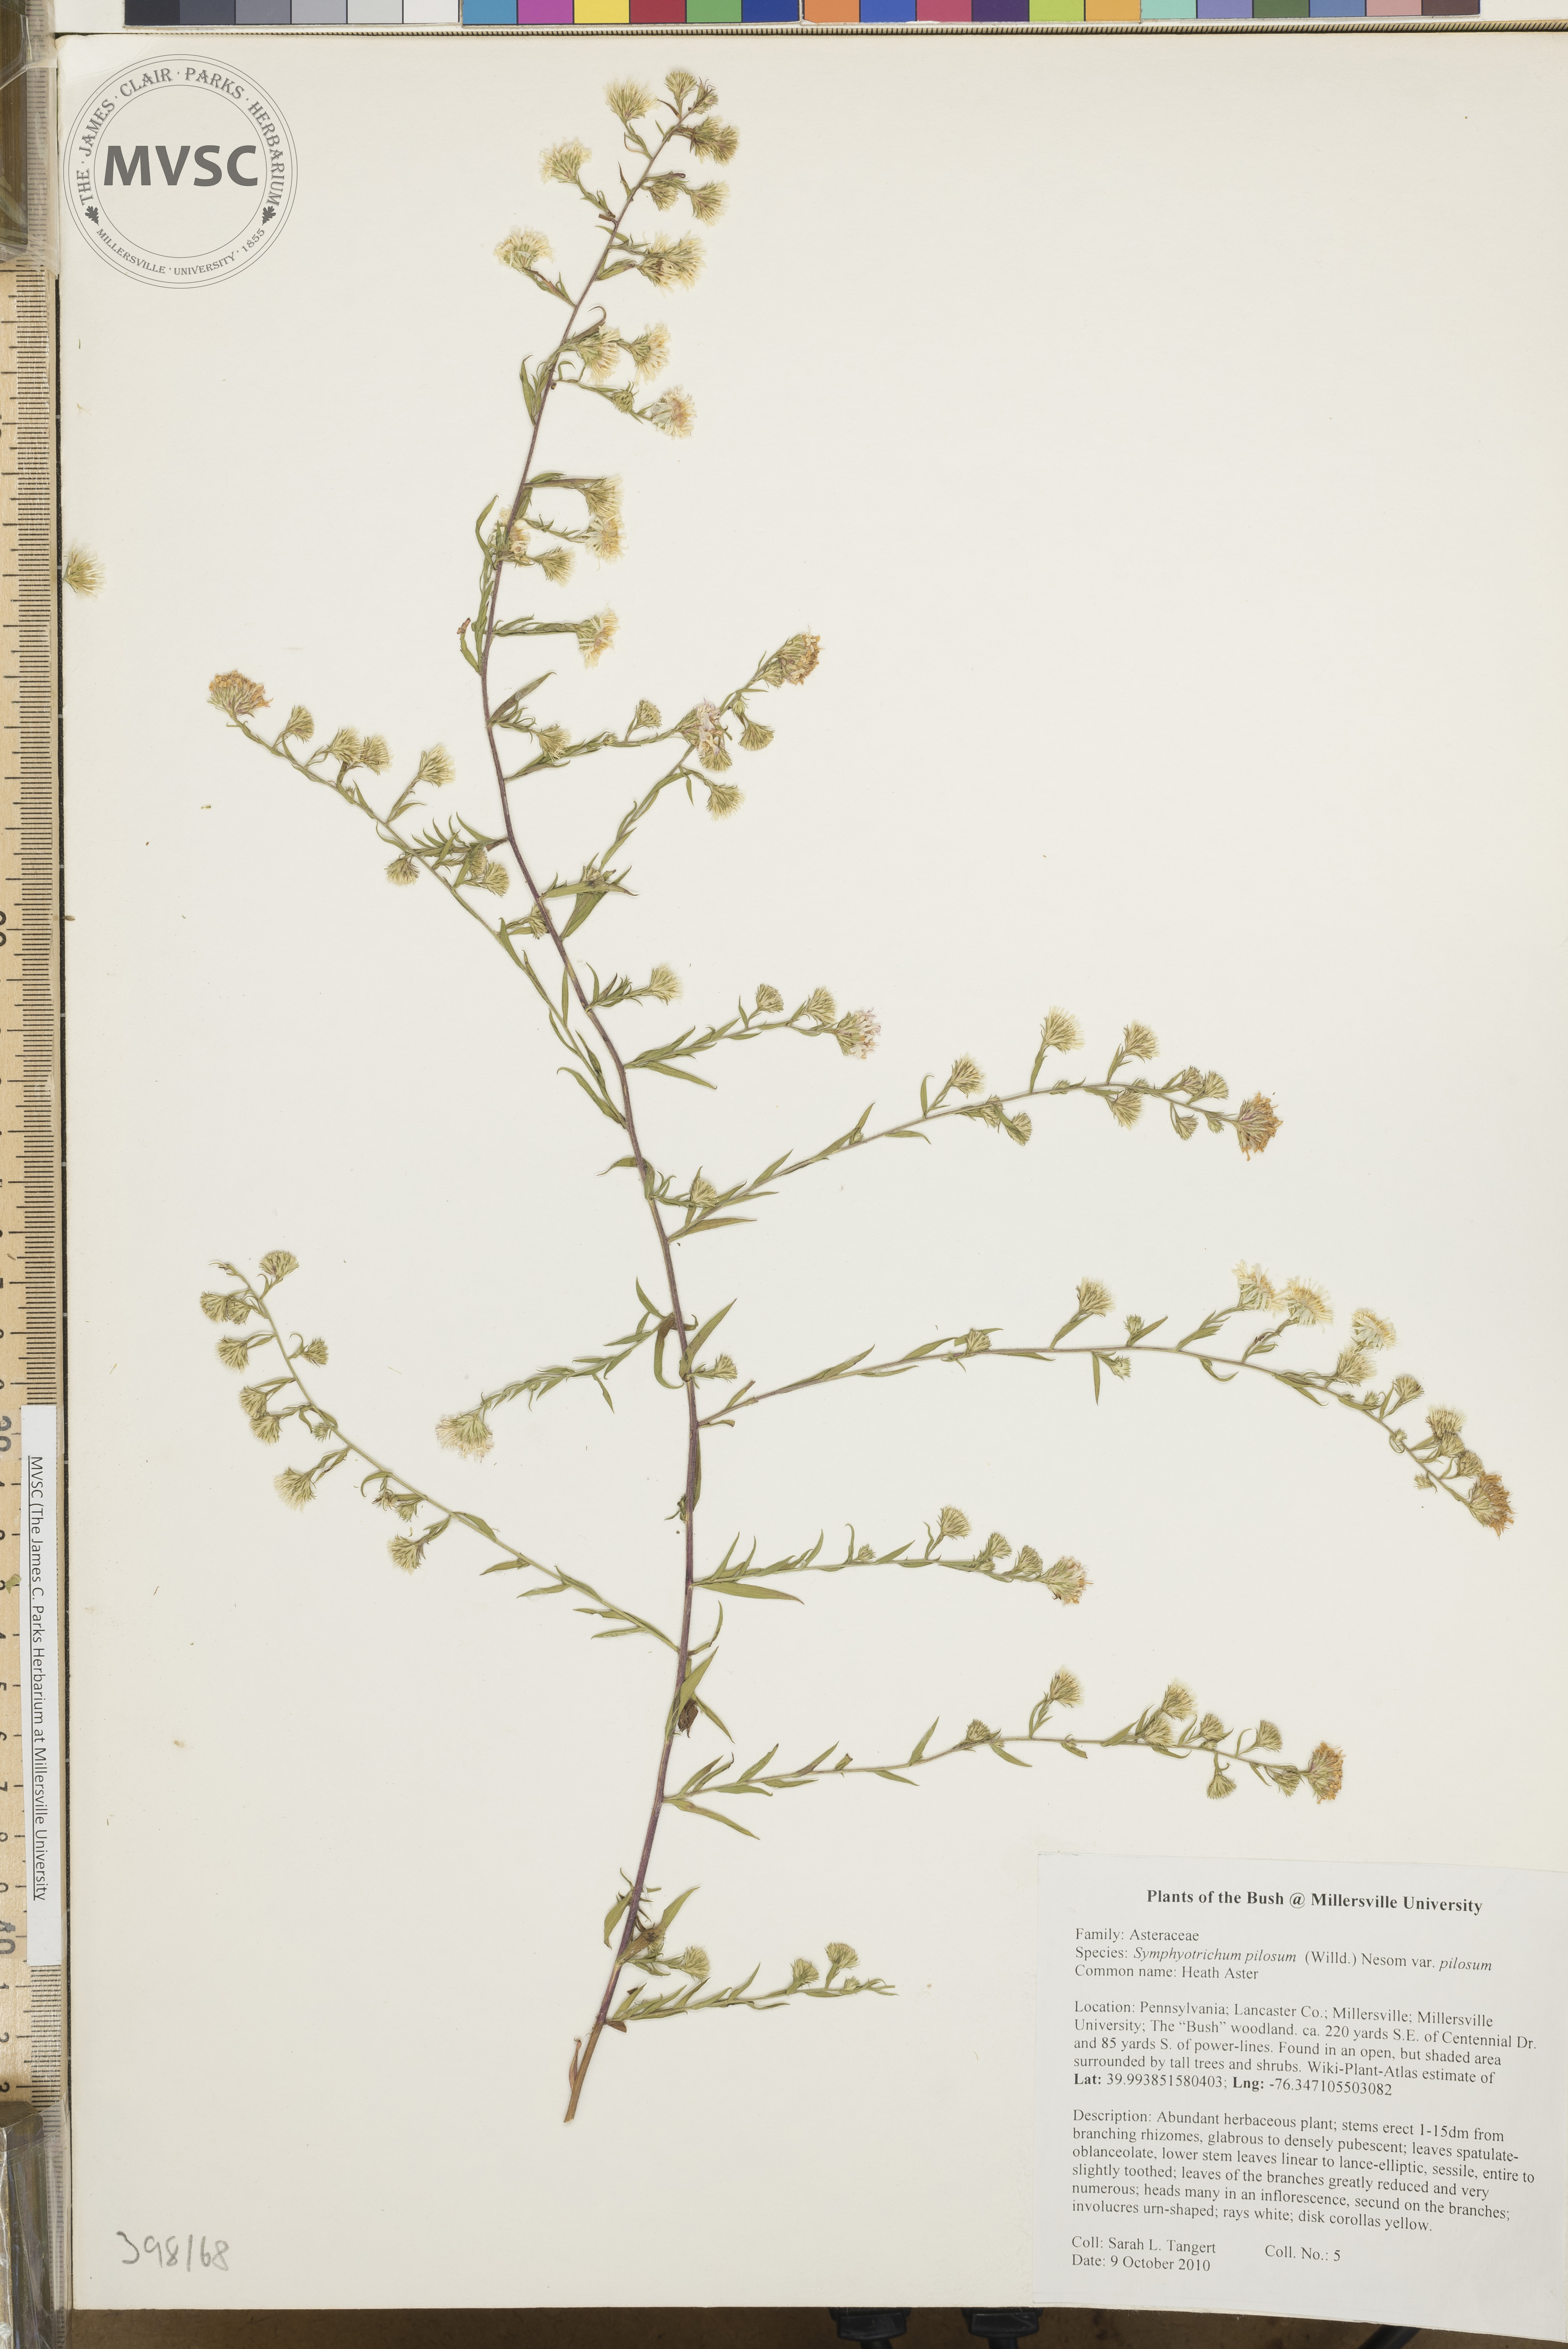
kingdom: Plantae
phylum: Tracheophyta
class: Magnoliopsida
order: Asterales
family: Asteraceae
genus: Symphyotrichum
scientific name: Symphyotrichum pilosum
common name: Late purple aster
